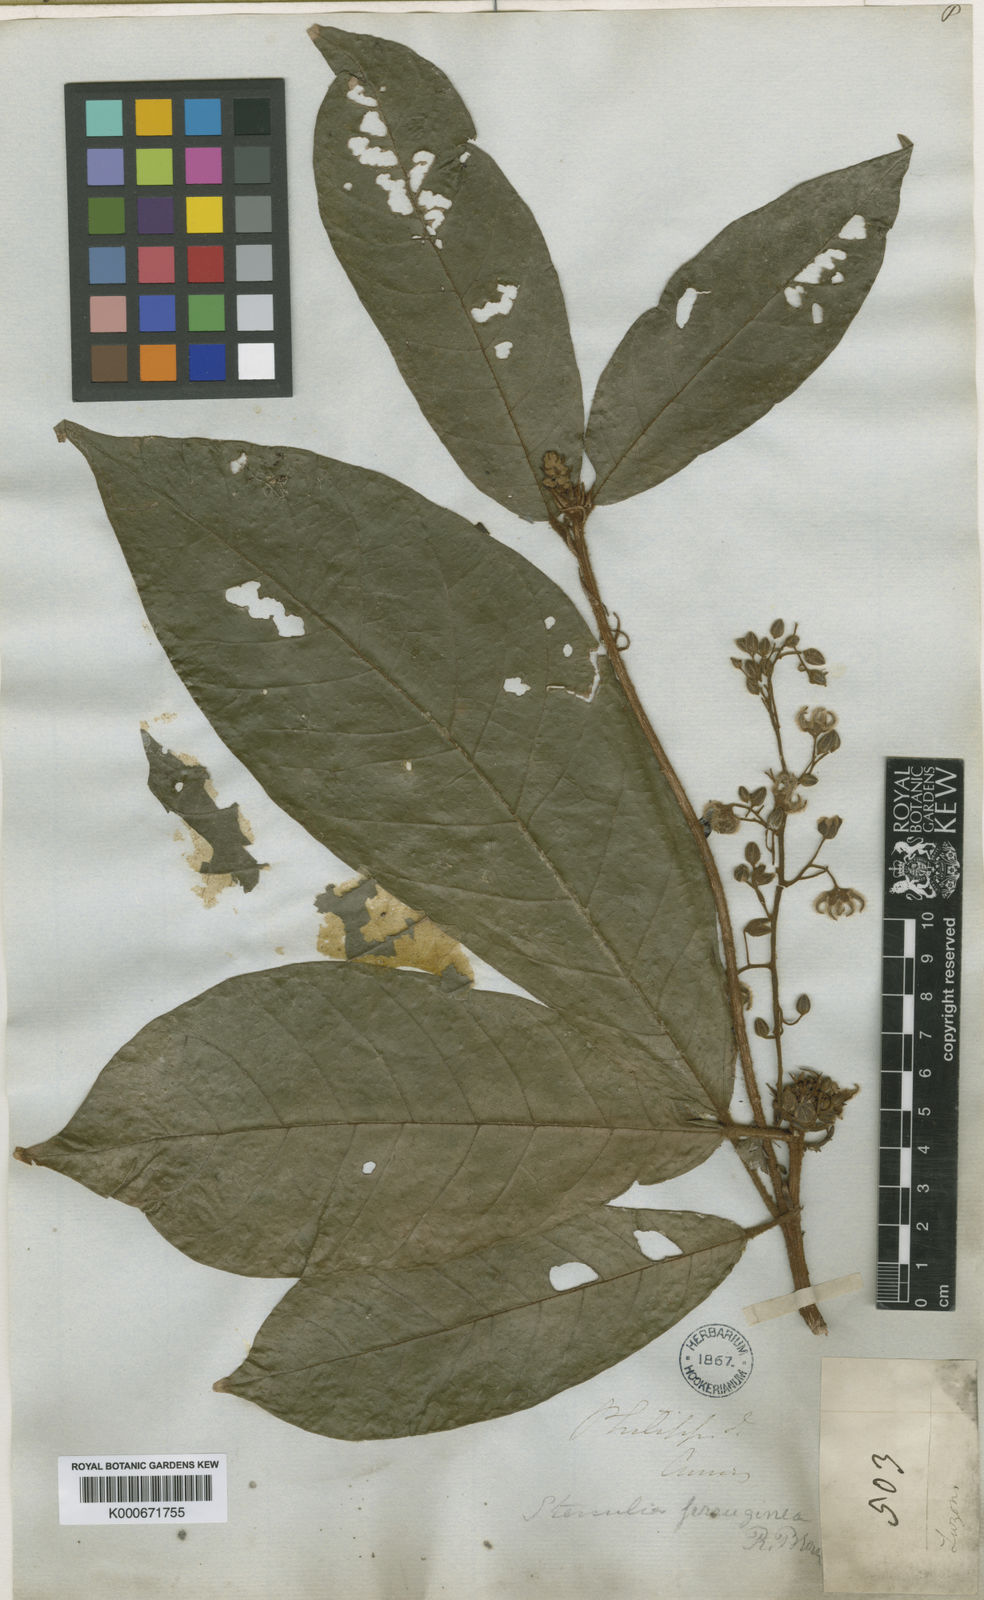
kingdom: Plantae
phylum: Tracheophyta
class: Magnoliopsida
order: Malvales
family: Malvaceae
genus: Sterculia
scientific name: Sterculia rubiginosa
